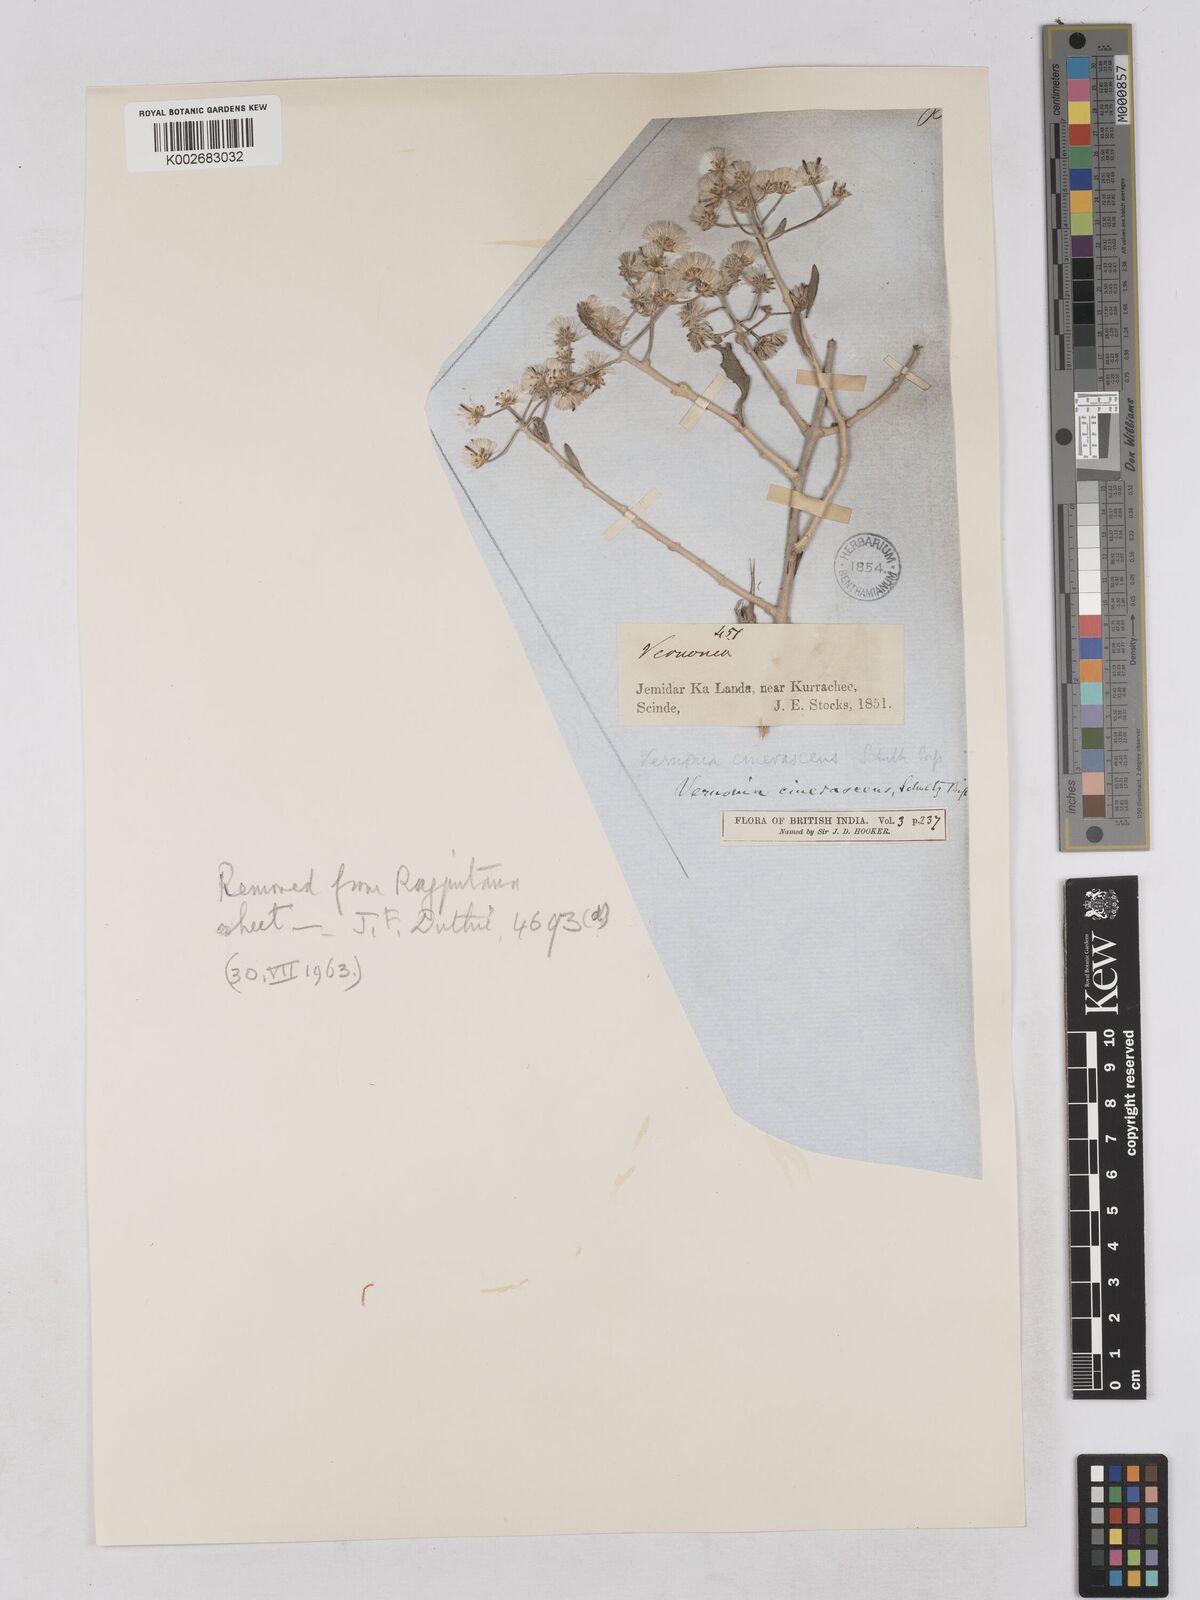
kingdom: Plantae
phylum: Tracheophyta
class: Magnoliopsida
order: Asterales
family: Asteraceae
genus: Orbivestus
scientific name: Orbivestus cinerascens
